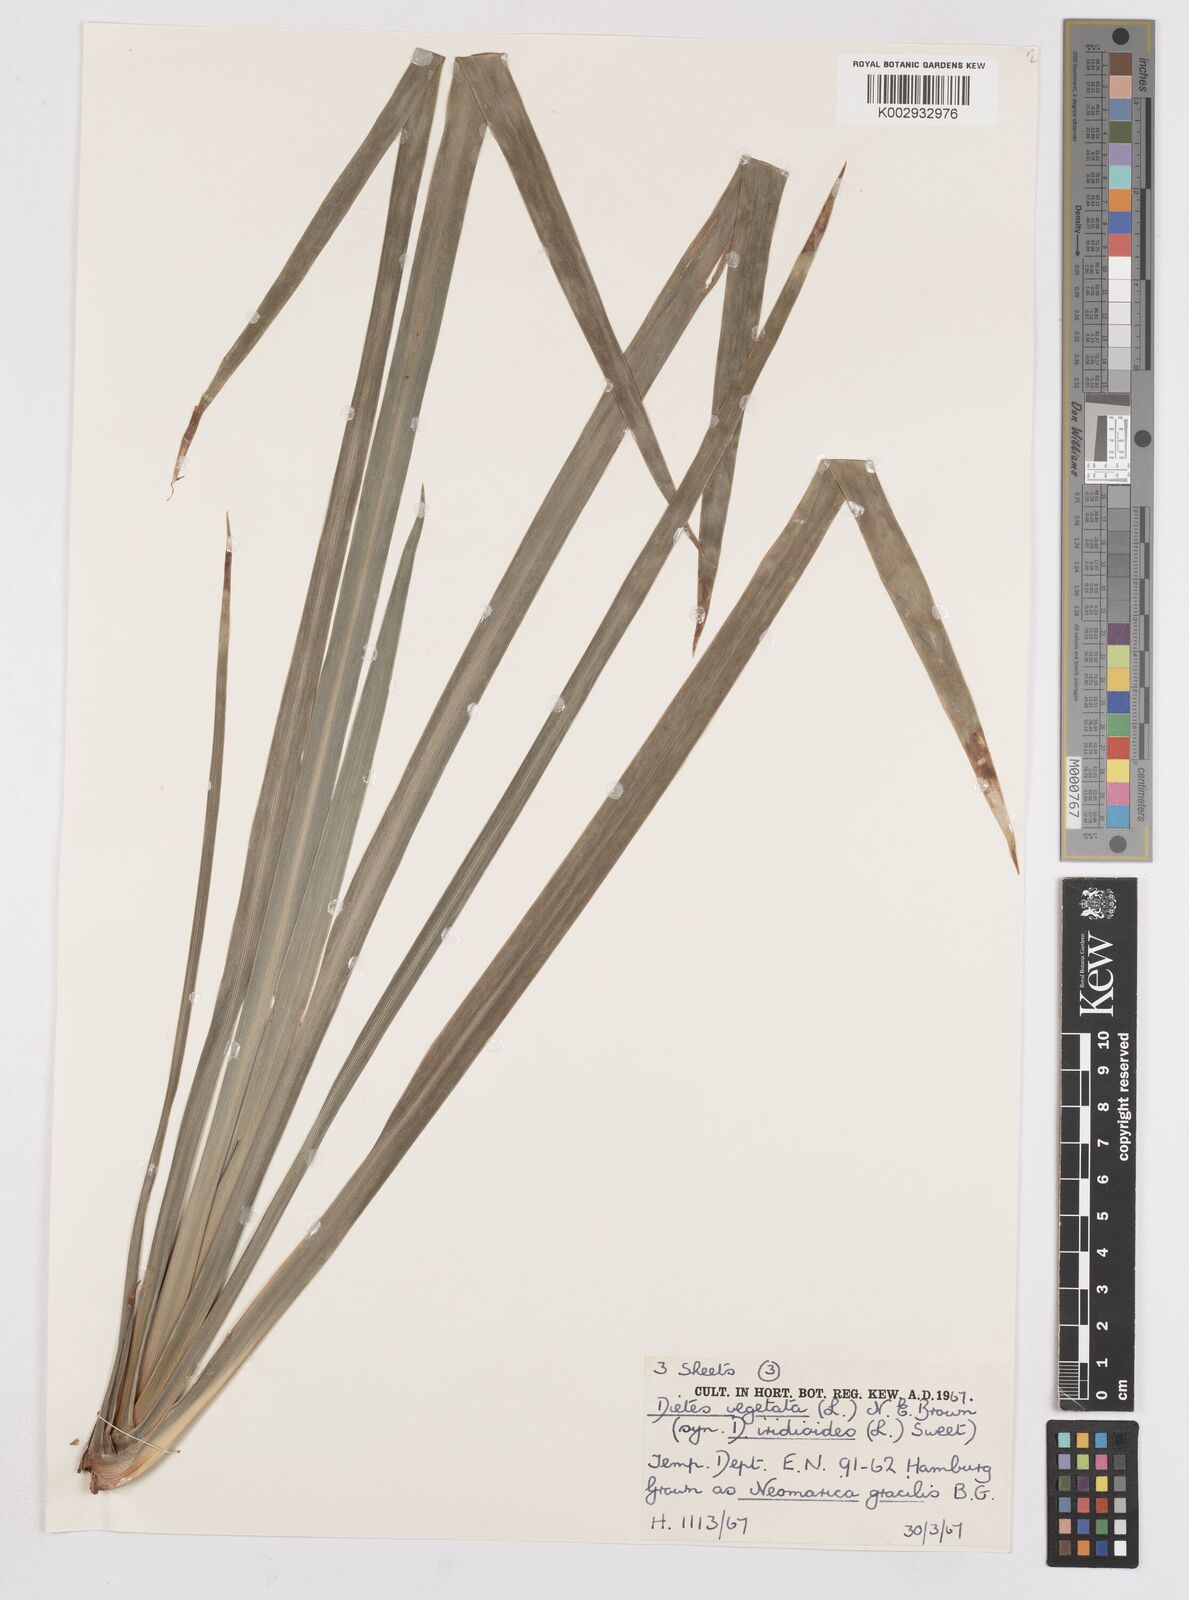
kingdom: Plantae
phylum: Tracheophyta
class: Liliopsida
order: Asparagales
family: Iridaceae
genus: Dietes
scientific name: Dietes iridioides
